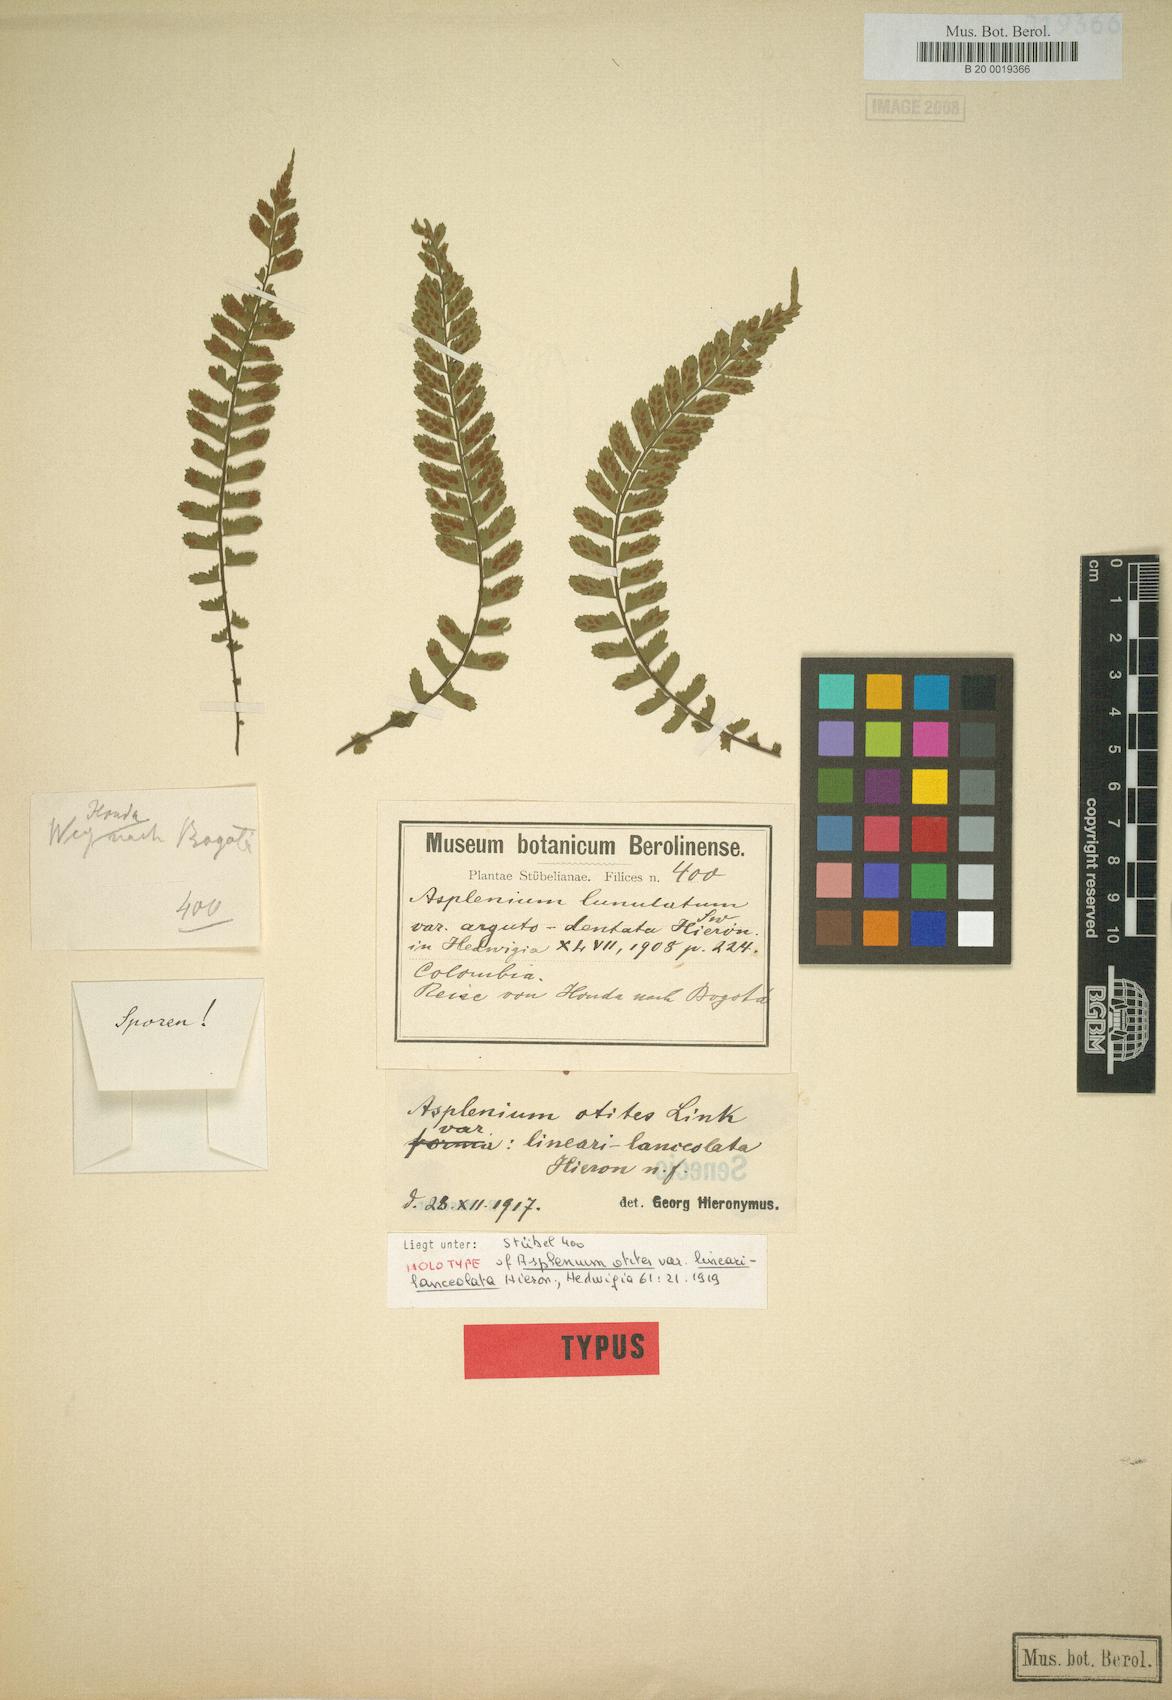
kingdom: Plantae
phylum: Tracheophyta
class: Polypodiopsida
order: Polypodiales
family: Aspleniaceae
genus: Asplenium
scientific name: Asplenium otites
